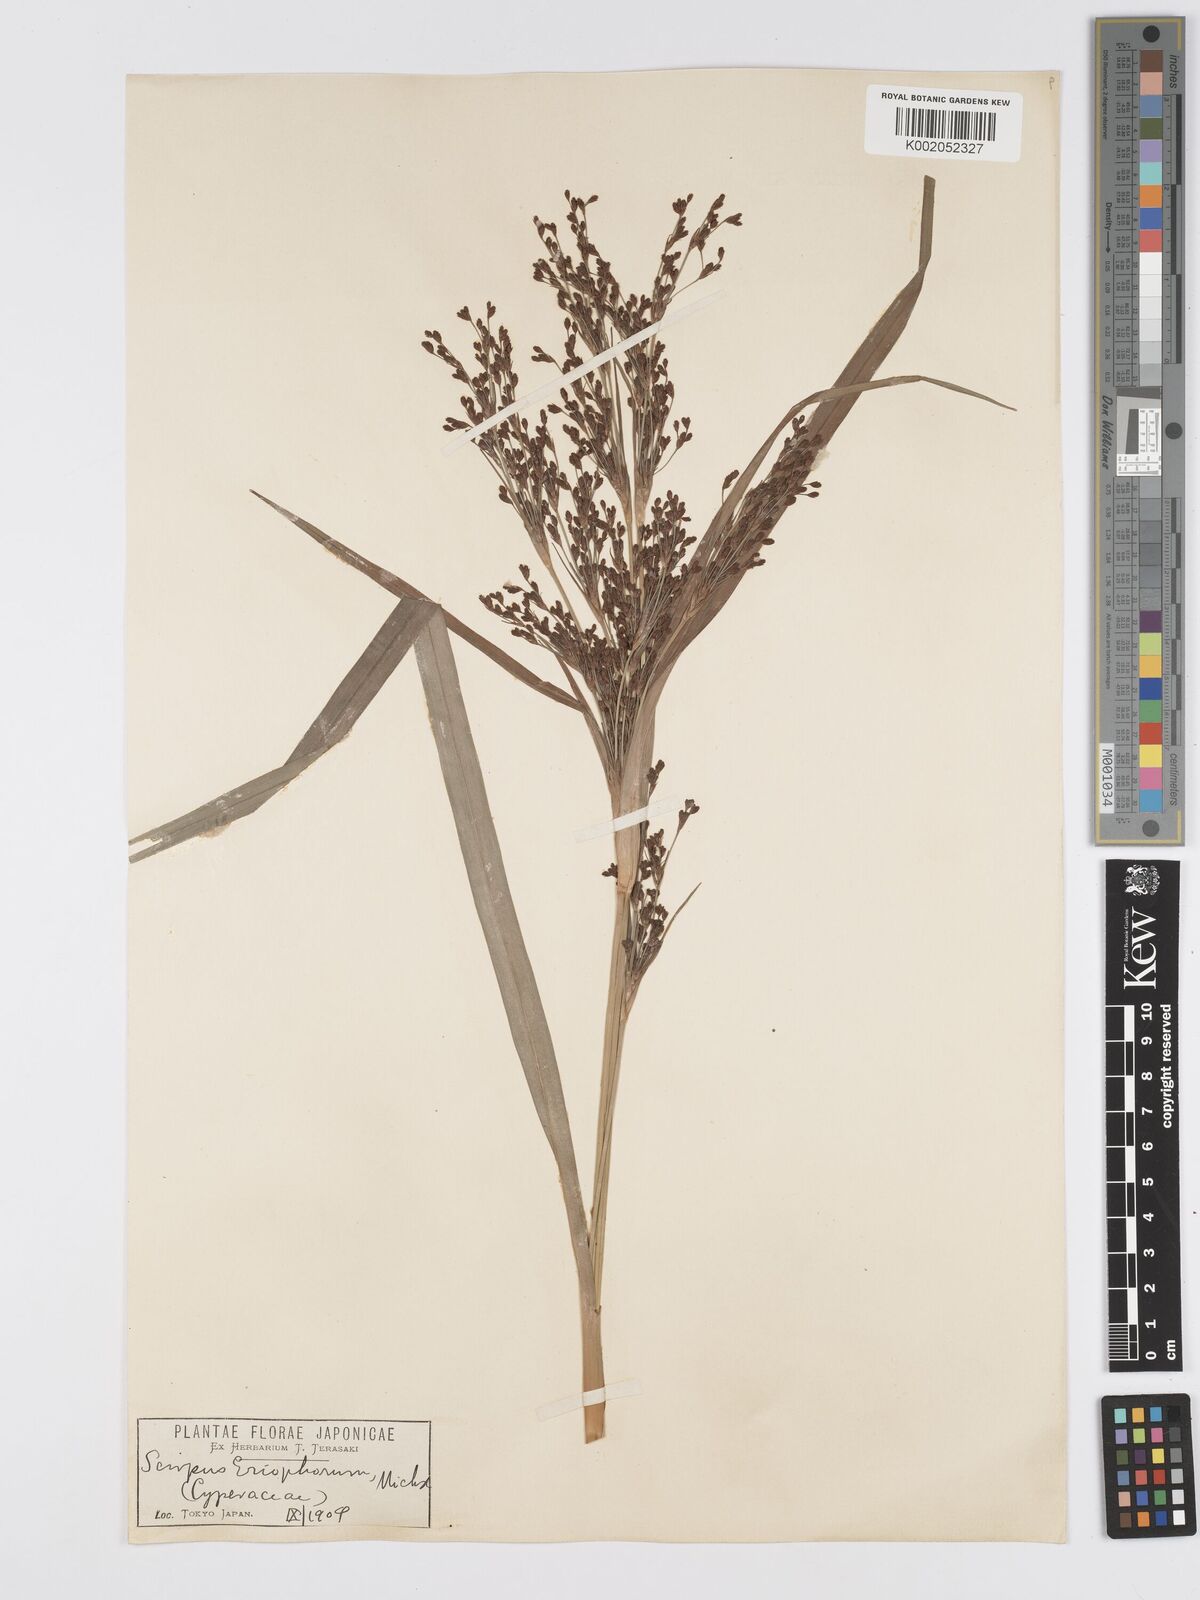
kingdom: Plantae
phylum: Tracheophyta
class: Liliopsida
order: Poales
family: Cyperaceae
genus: Scirpus
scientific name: Scirpus cyperinus
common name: Black-sheathed bulrush
